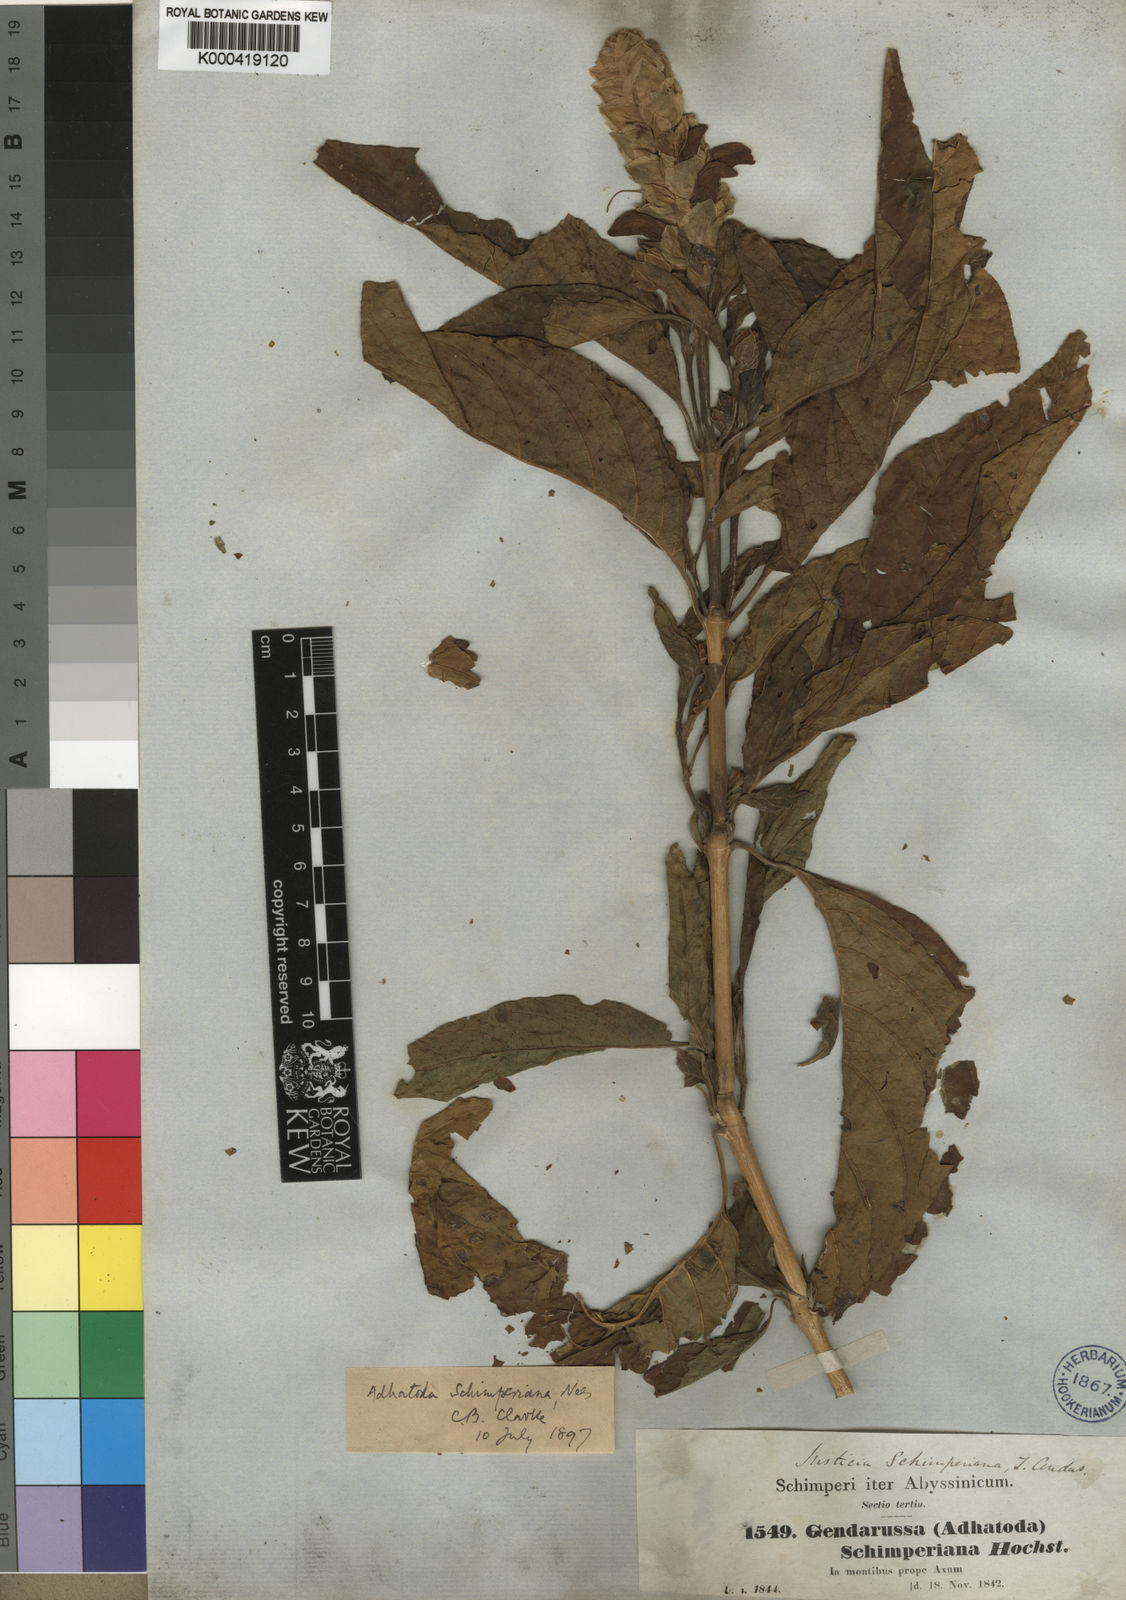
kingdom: Plantae
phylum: Tracheophyta
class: Magnoliopsida
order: Lamiales
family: Acanthaceae
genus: Justicia
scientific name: Justicia schimperiana
